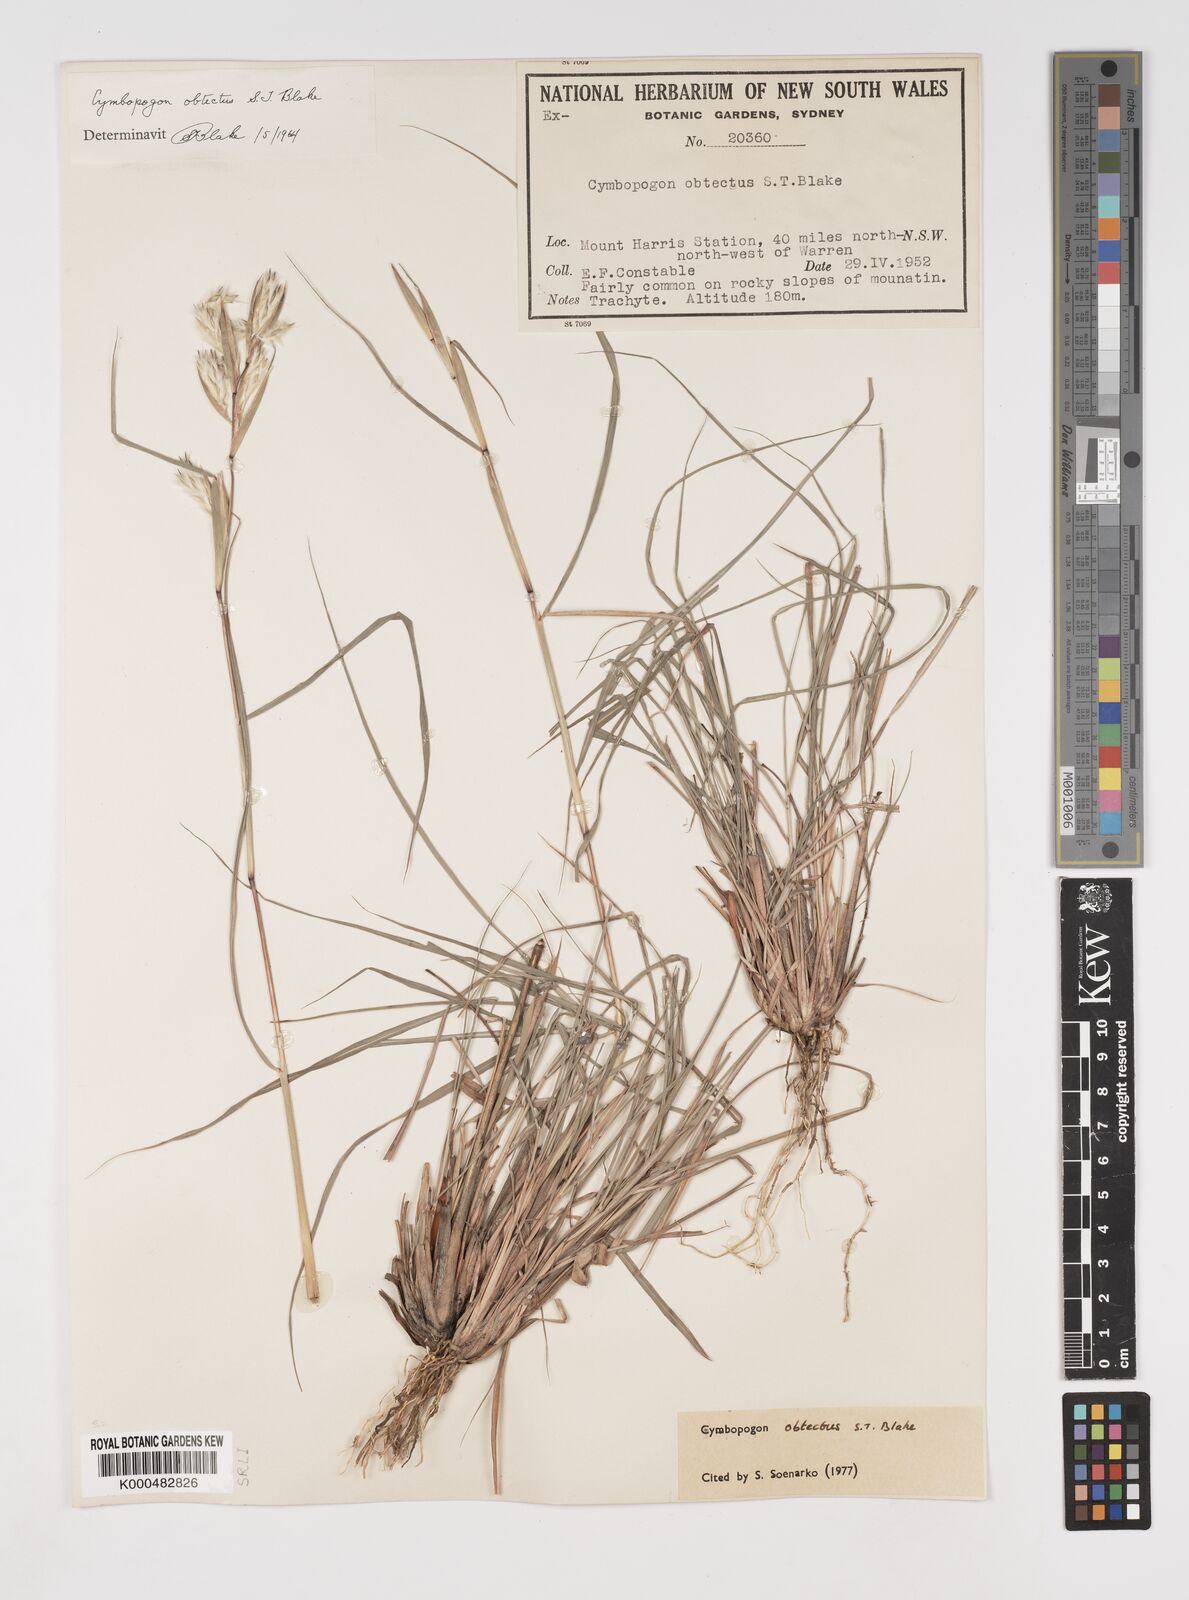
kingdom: Plantae
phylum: Tracheophyta
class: Liliopsida
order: Poales
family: Poaceae
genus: Cymbopogon
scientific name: Cymbopogon obtectus
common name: Silky heads
